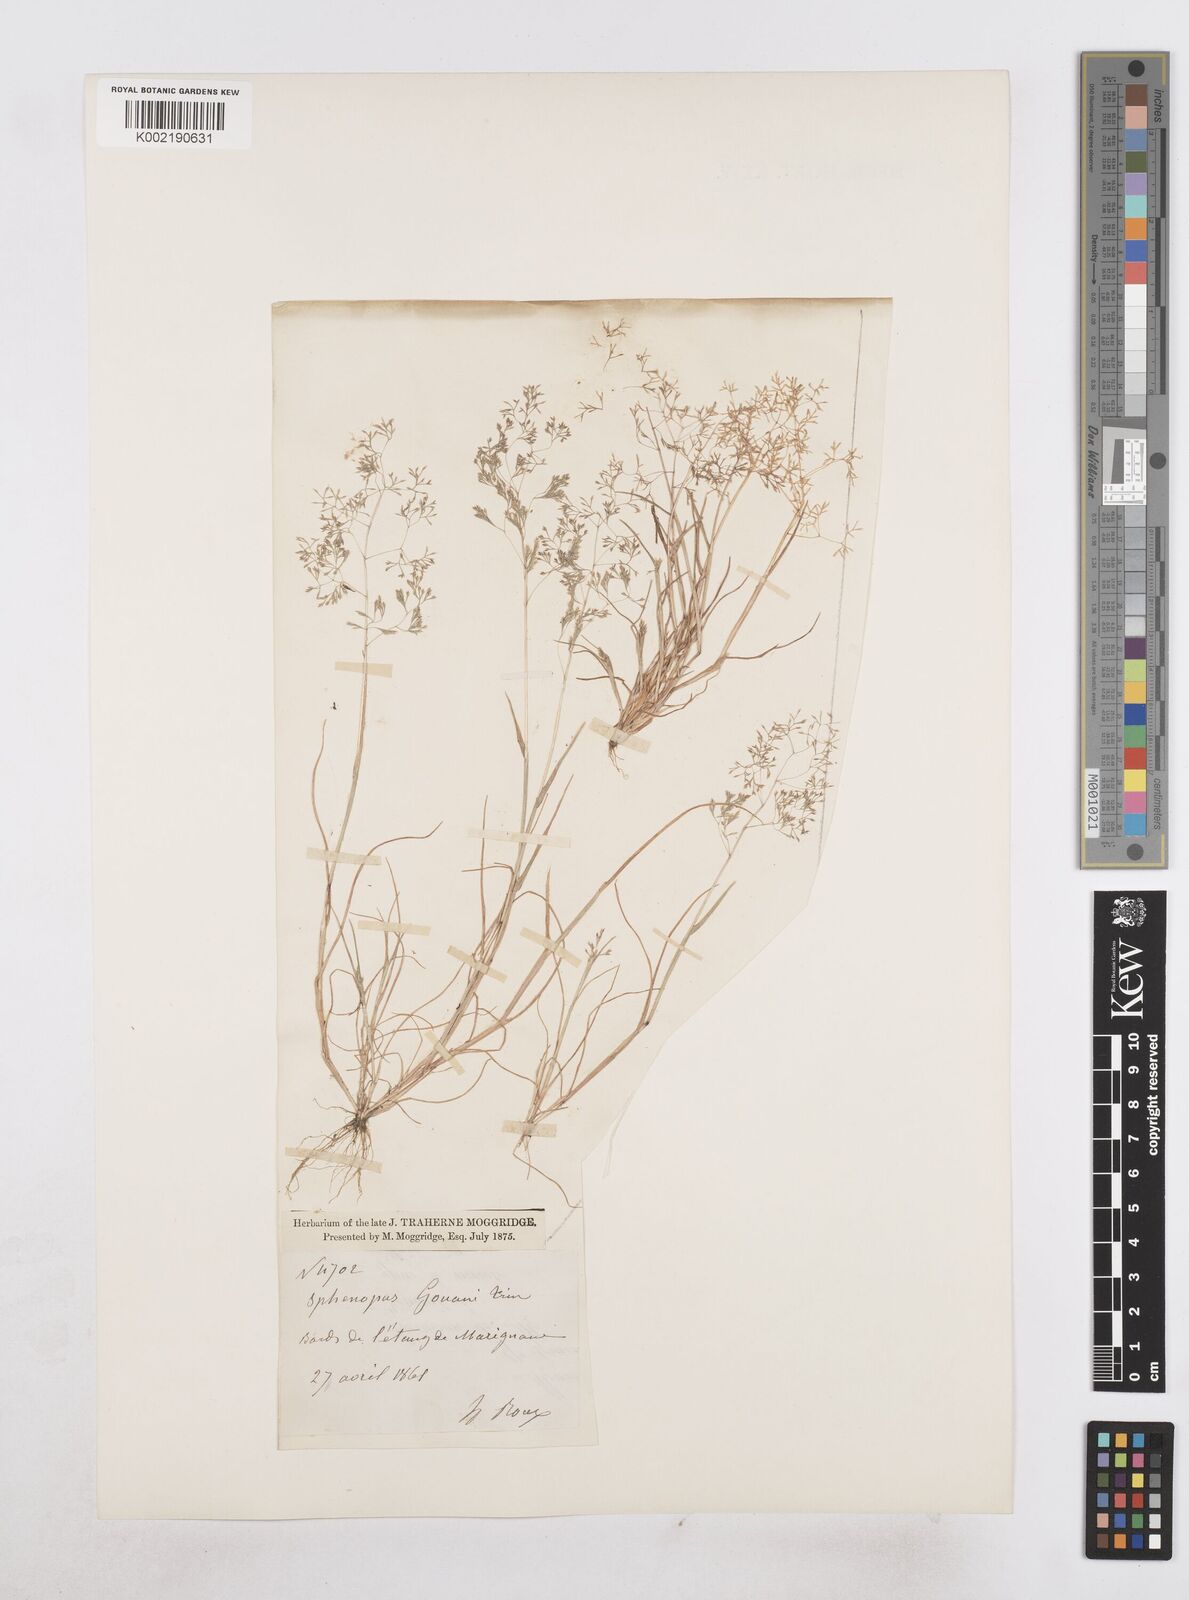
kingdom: Plantae
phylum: Tracheophyta
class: Liliopsida
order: Poales
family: Poaceae
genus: Sphenopus
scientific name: Sphenopus divaricatus
